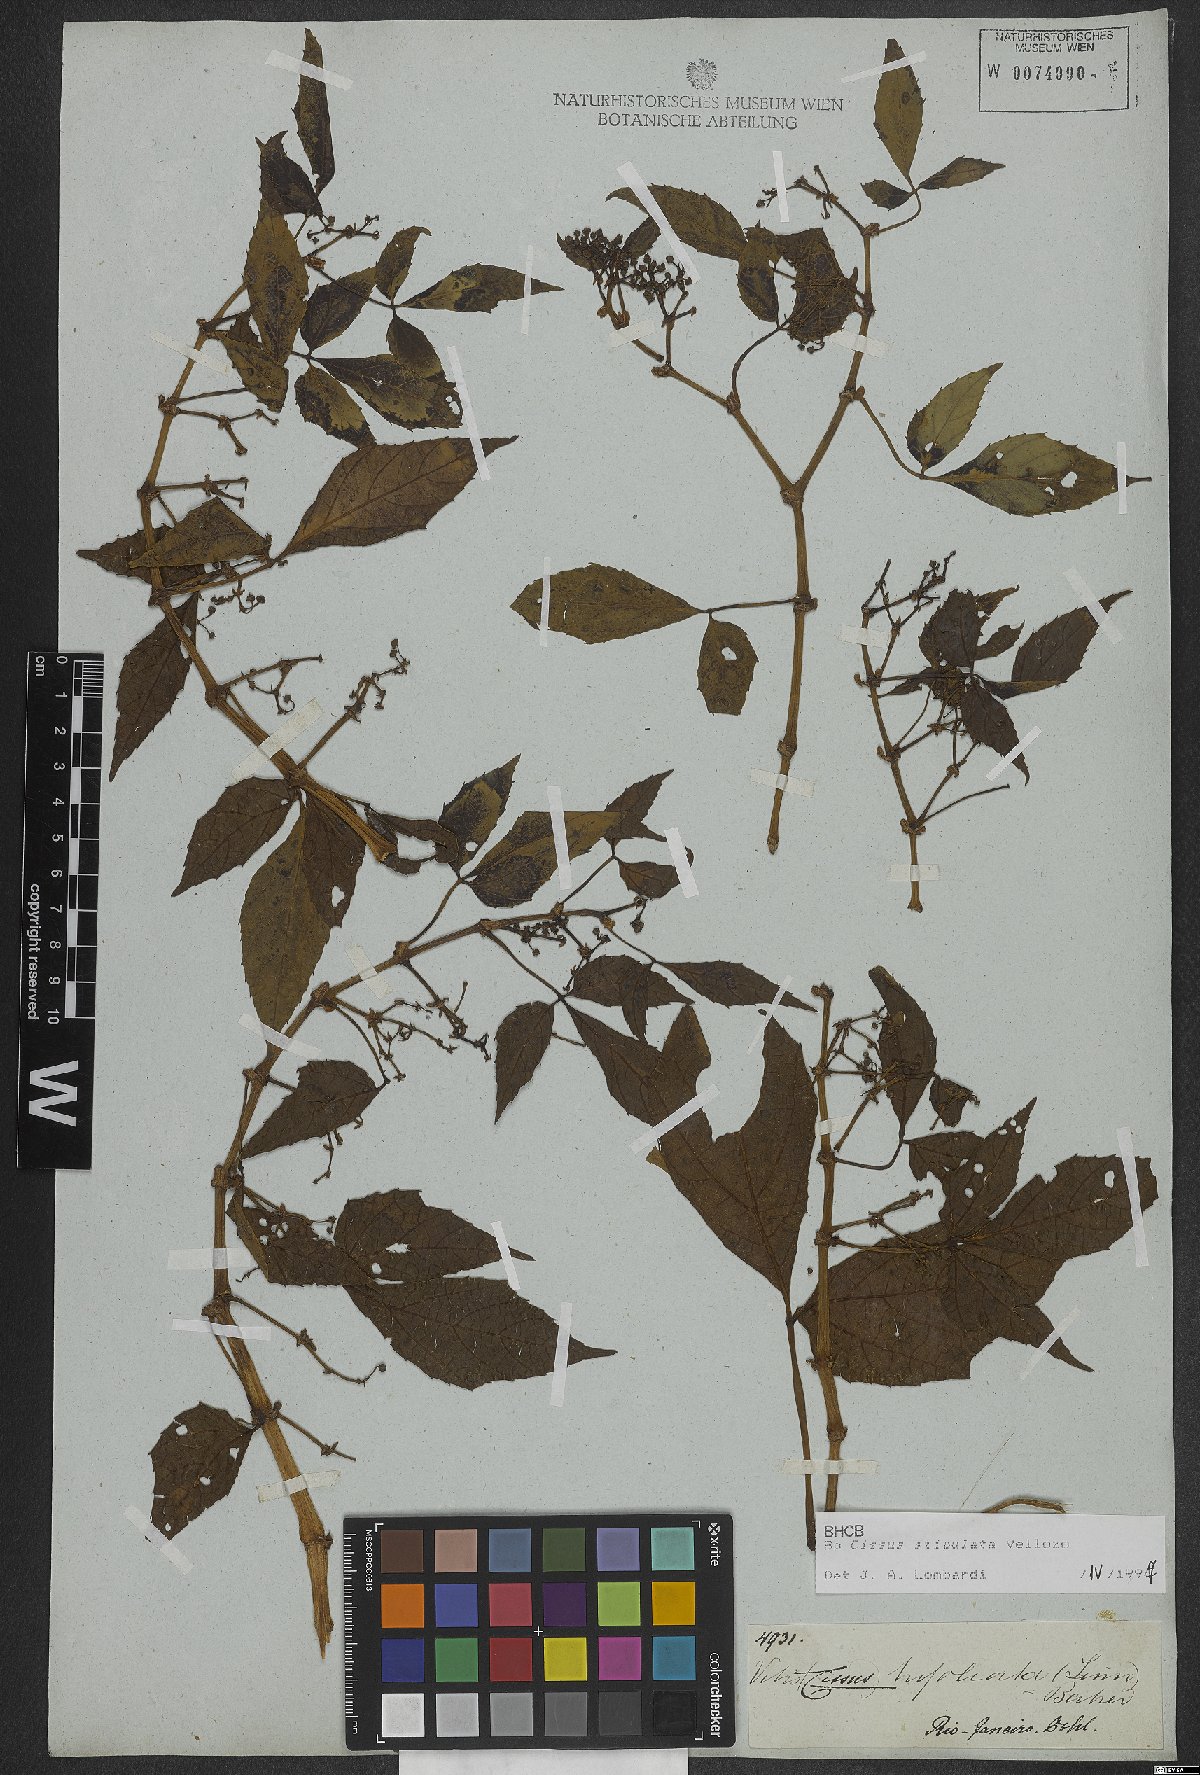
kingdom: Plantae
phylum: Tracheophyta
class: Magnoliopsida
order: Vitales
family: Vitaceae
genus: Cissus
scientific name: Cissus stipulata
